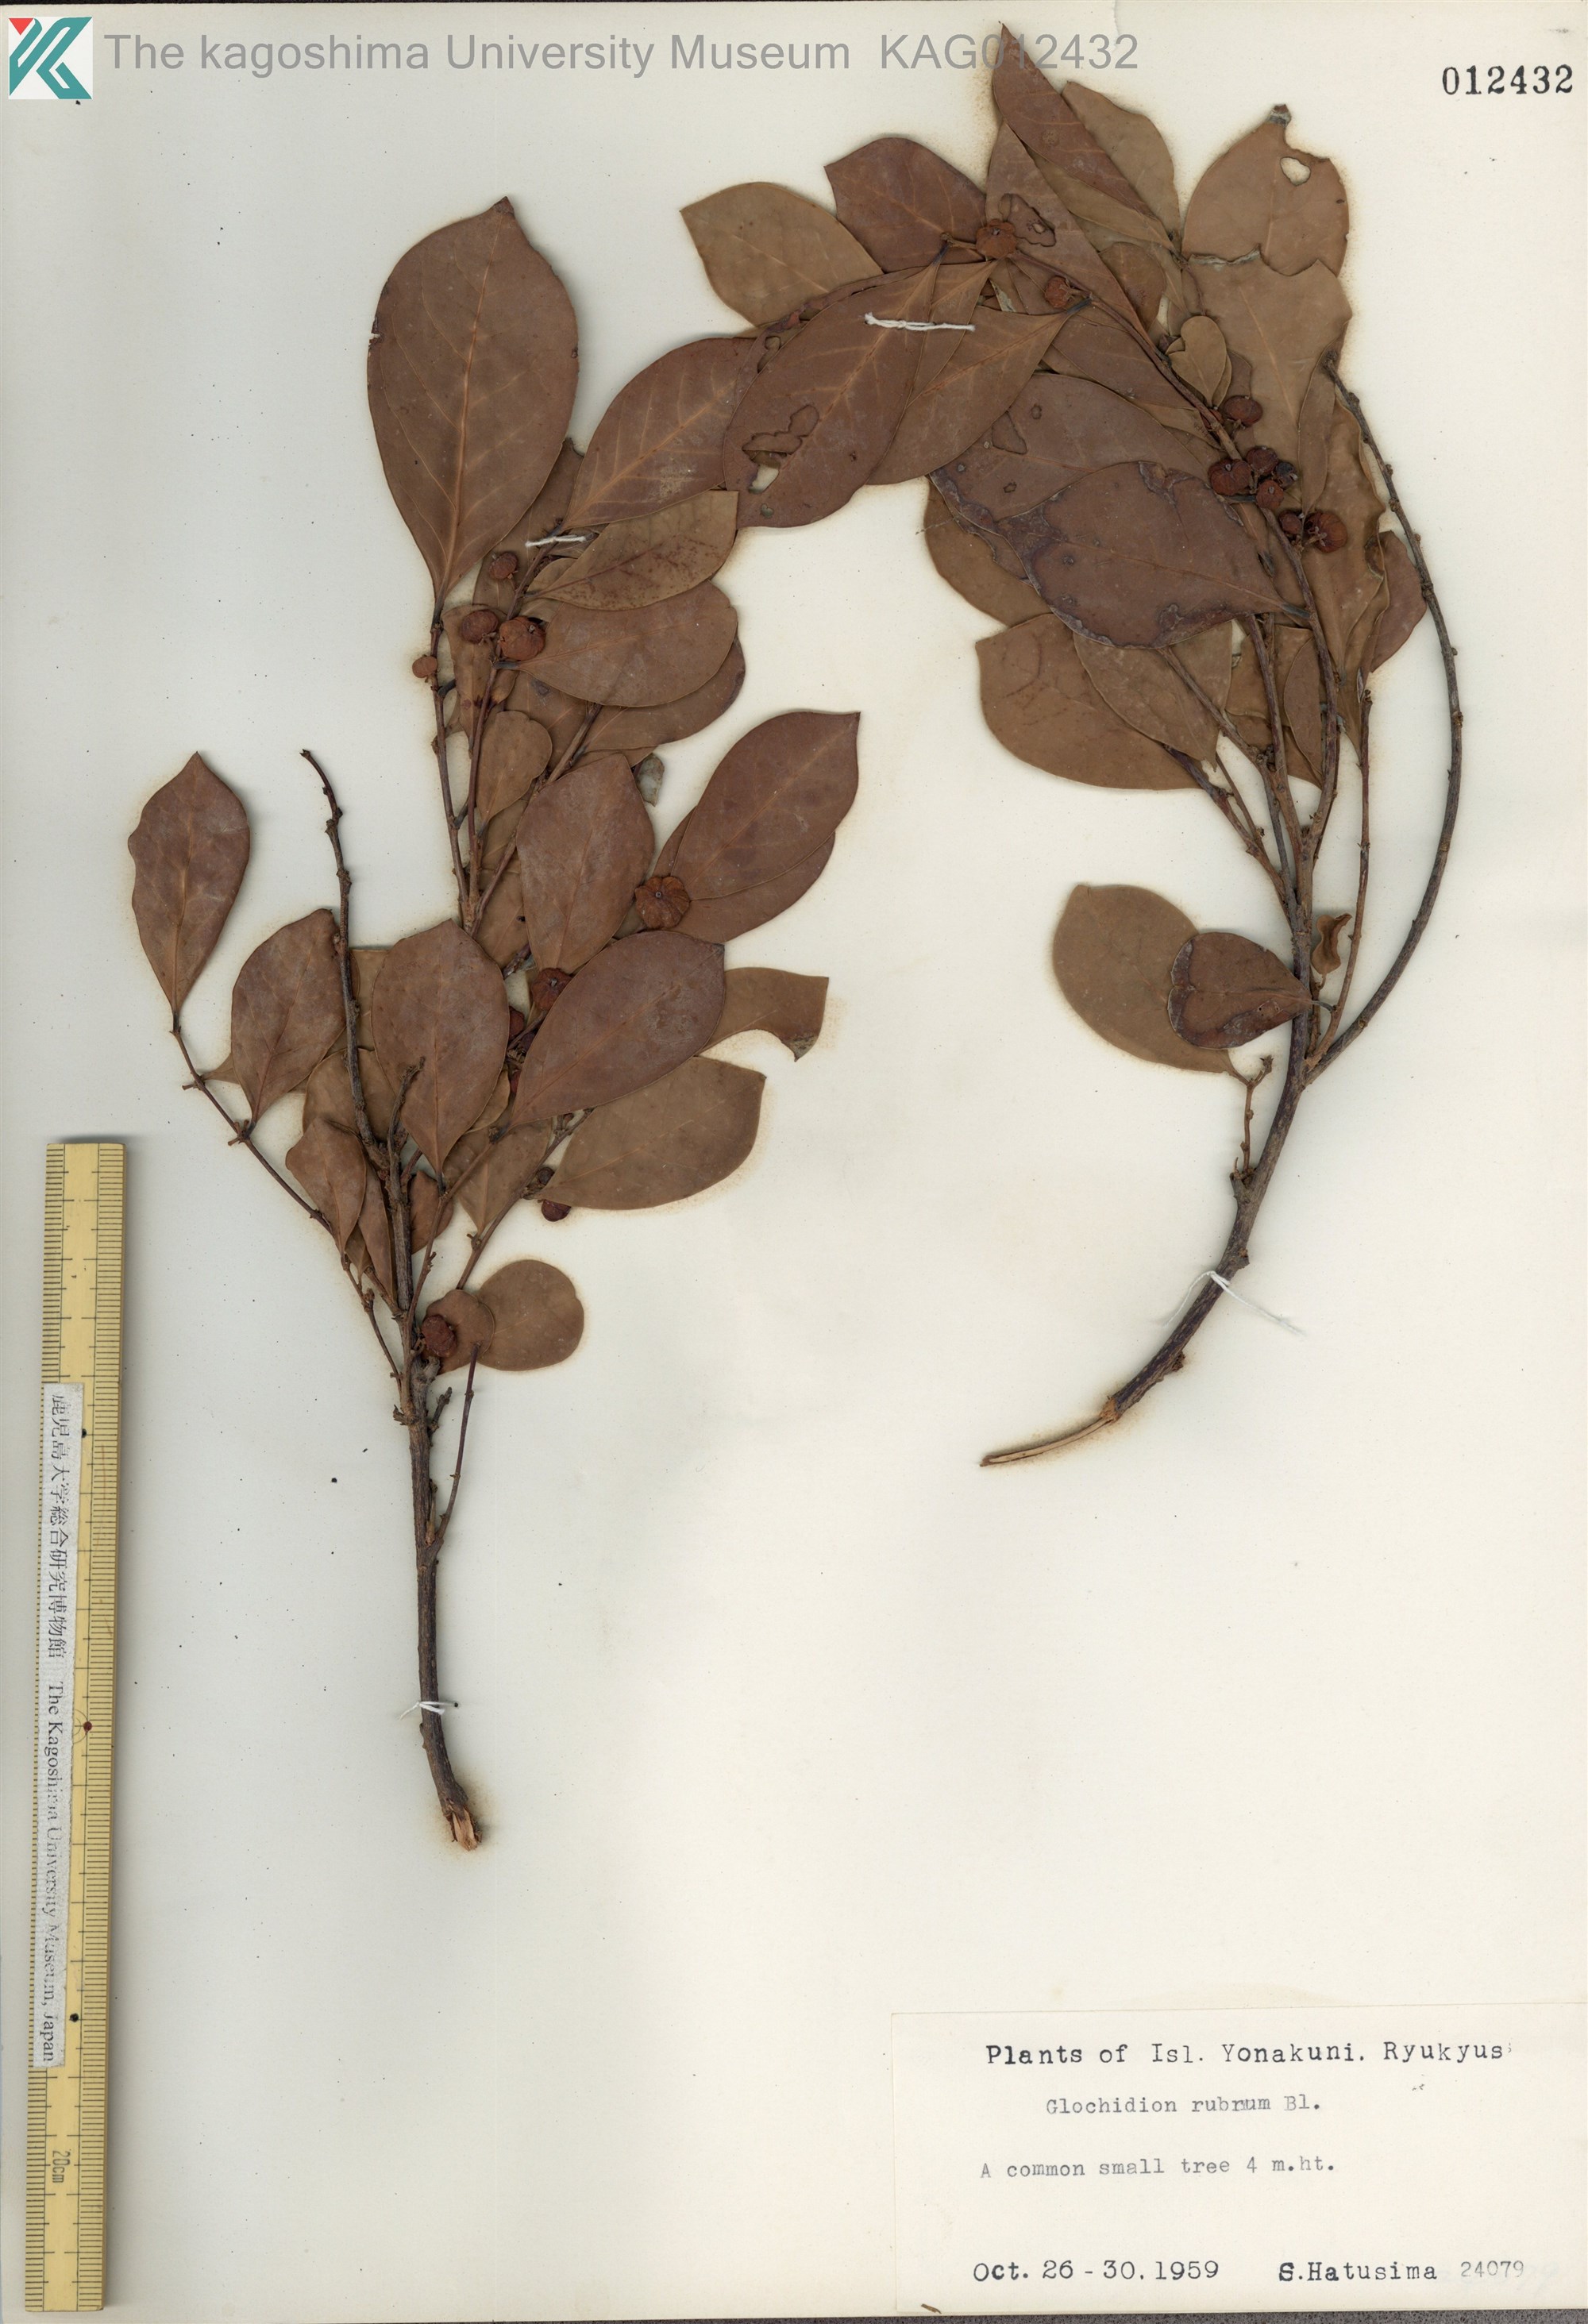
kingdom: Plantae
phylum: Tracheophyta
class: Magnoliopsida
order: Malpighiales
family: Phyllanthaceae
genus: Glochidion
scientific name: Glochidion rubrum
